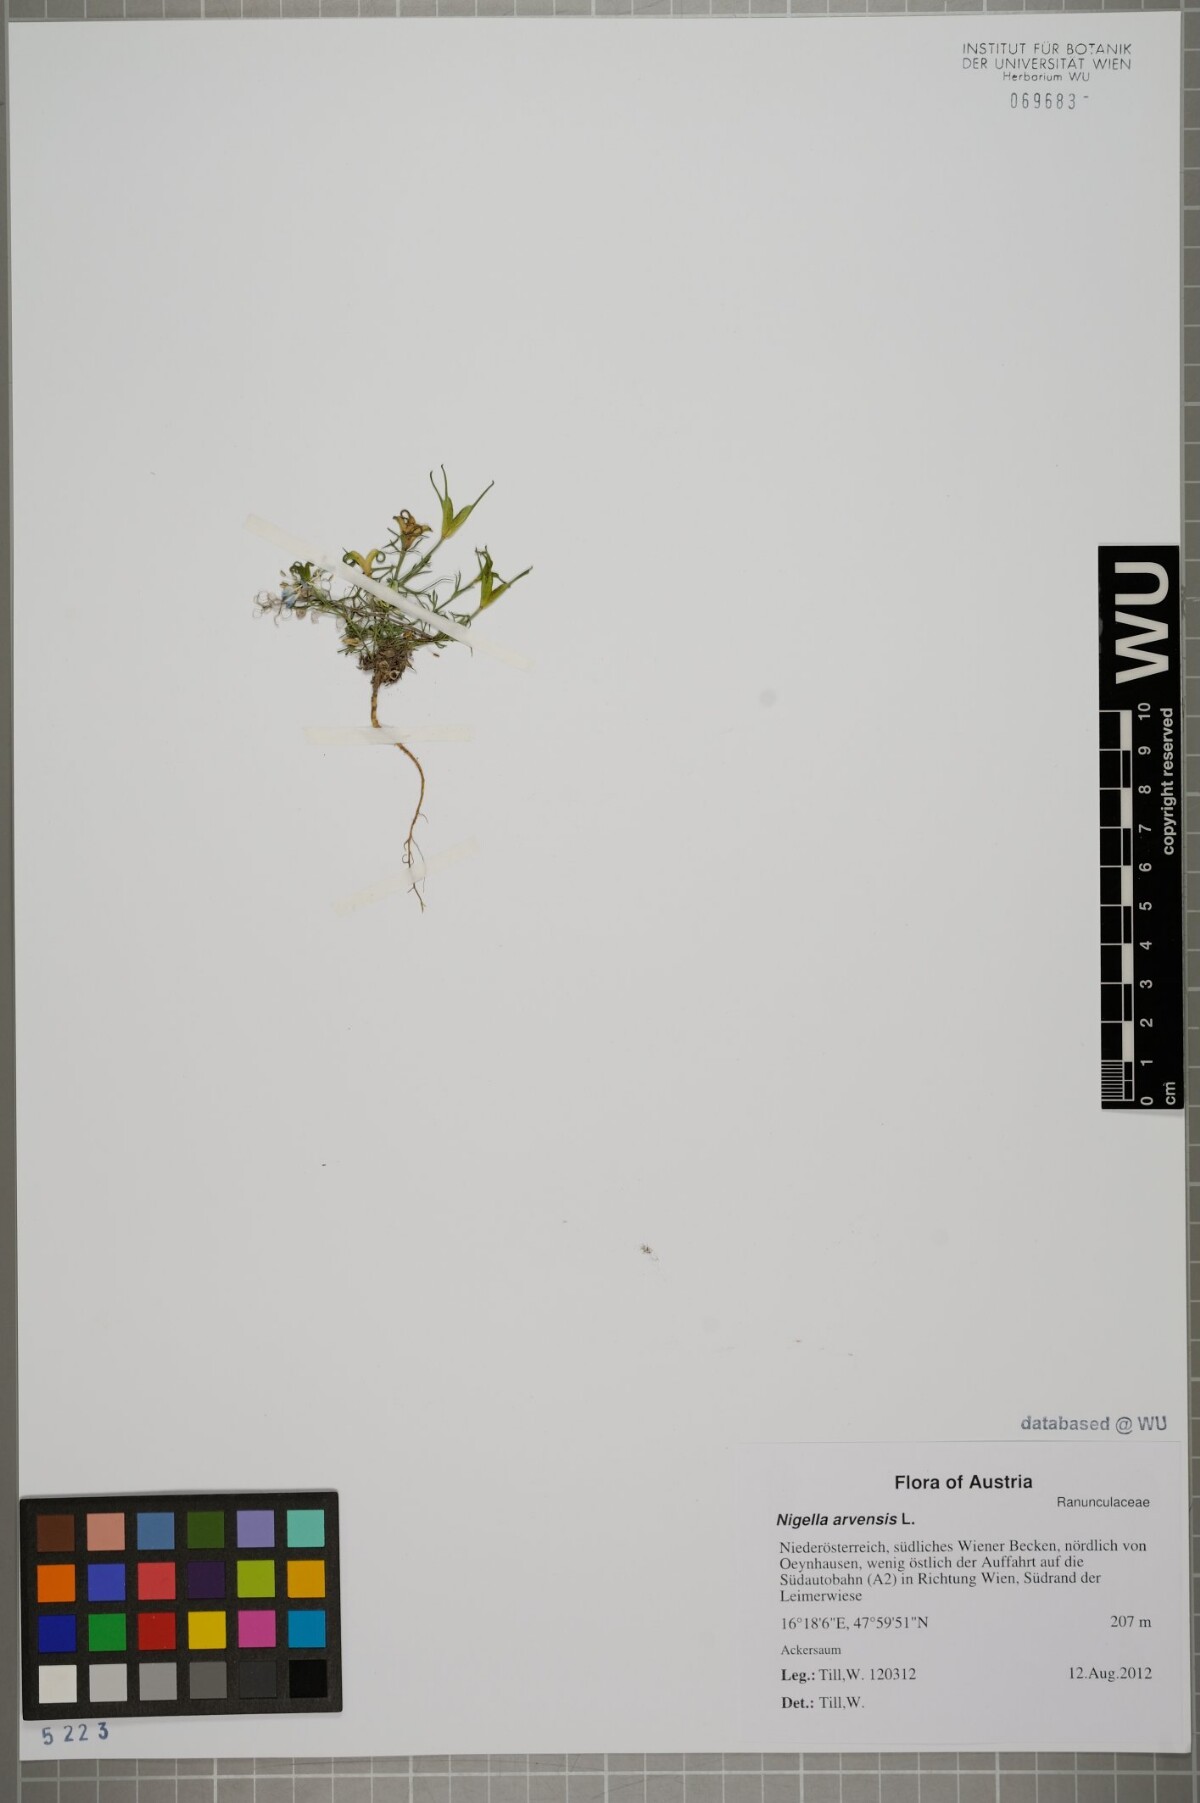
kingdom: Plantae
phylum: Tracheophyta
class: Magnoliopsida
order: Ranunculales
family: Ranunculaceae
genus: Nigella
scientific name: Nigella arvensis
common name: Wild fennel-flower
